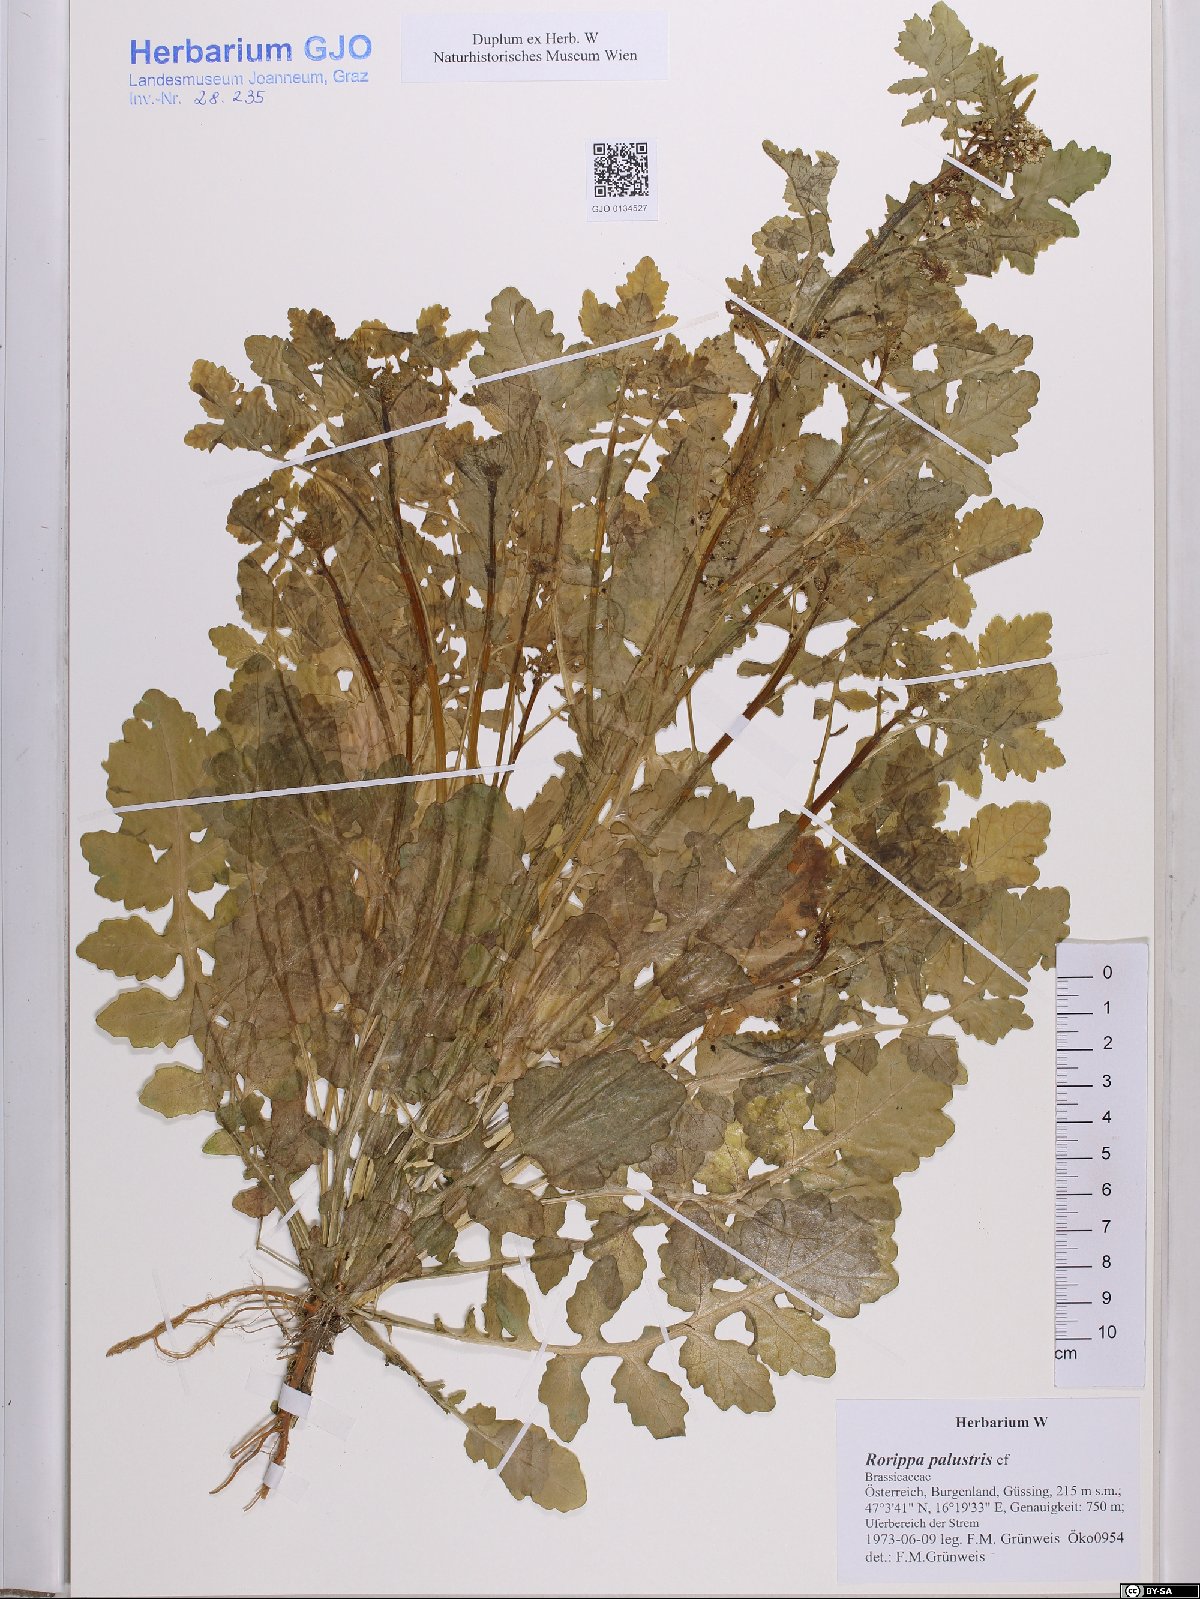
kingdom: Plantae
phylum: Tracheophyta
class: Magnoliopsida
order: Brassicales
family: Brassicaceae
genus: Rorippa
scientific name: Rorippa palustris
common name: Marsh yellow-cress
